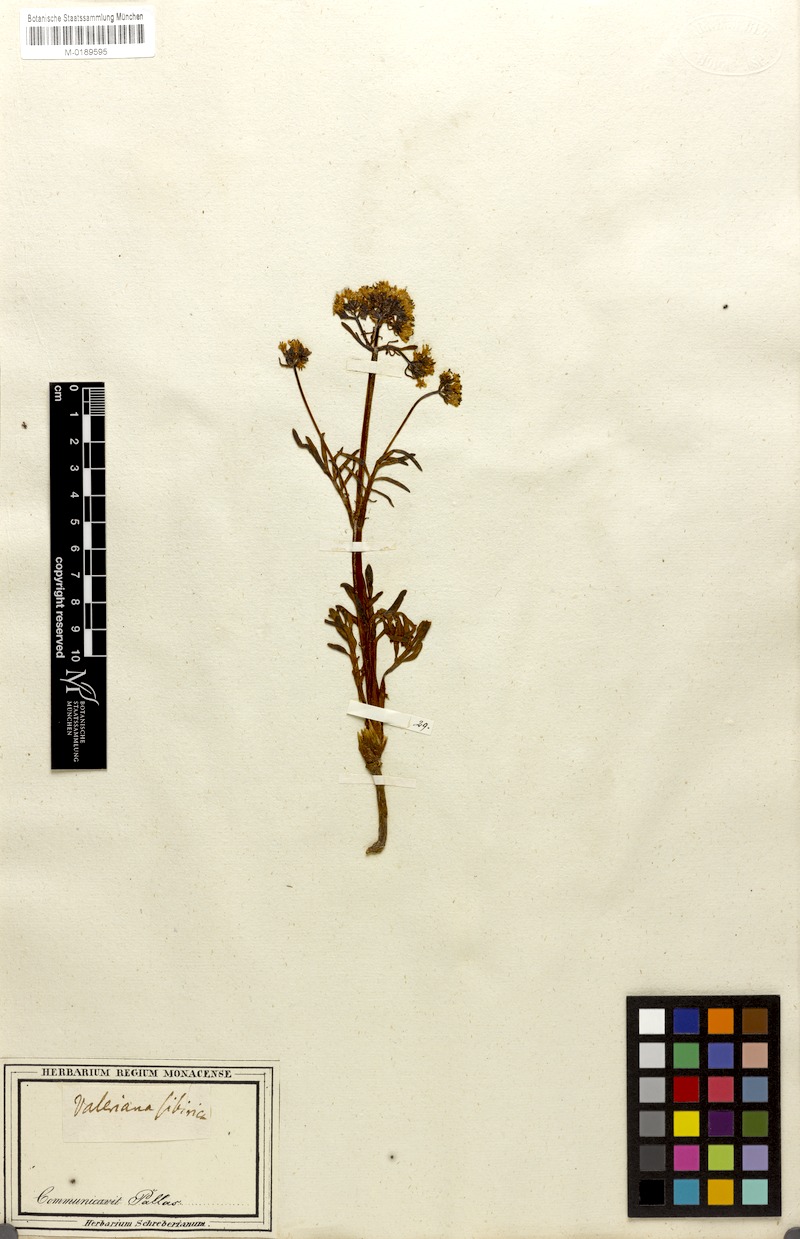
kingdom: Plantae
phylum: Tracheophyta
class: Magnoliopsida
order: Dipsacales
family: Caprifoliaceae
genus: Patrinia
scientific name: Patrinia sibirica
